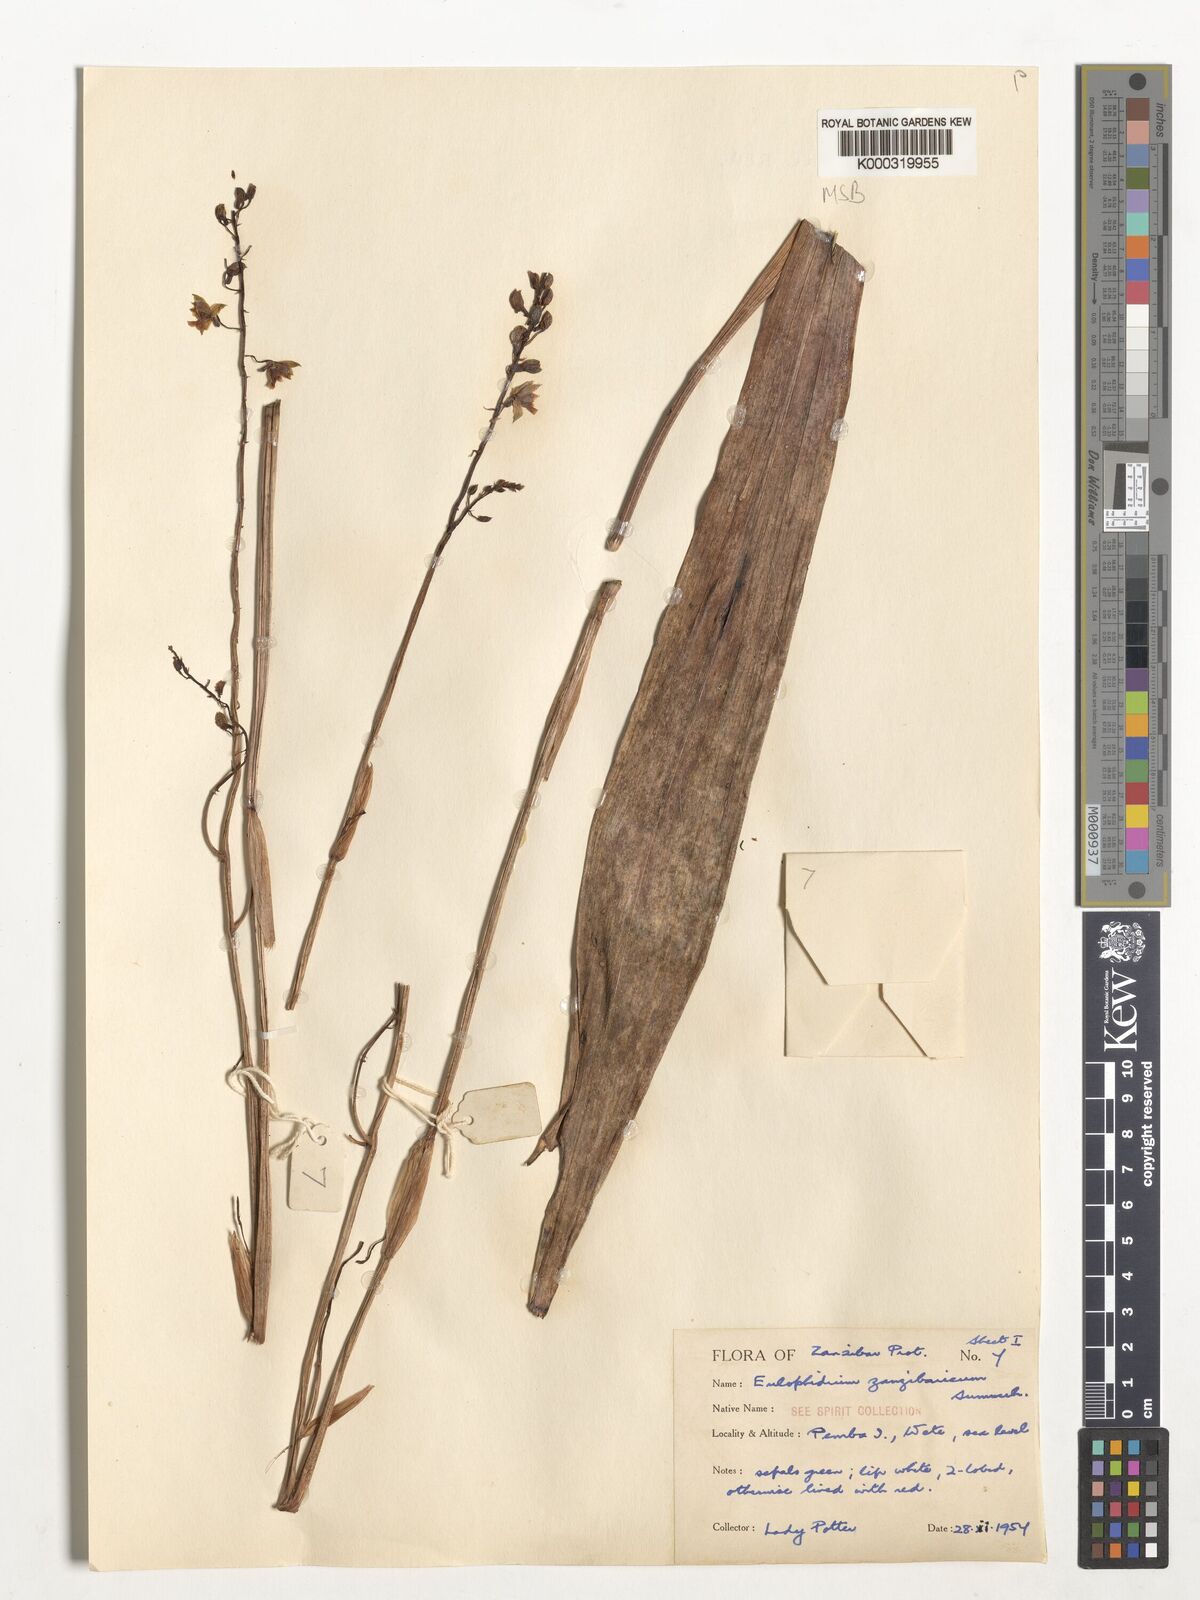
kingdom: Plantae
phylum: Tracheophyta
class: Liliopsida
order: Asparagales
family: Orchidaceae
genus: Eulophia
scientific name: Eulophia zanzibarica
